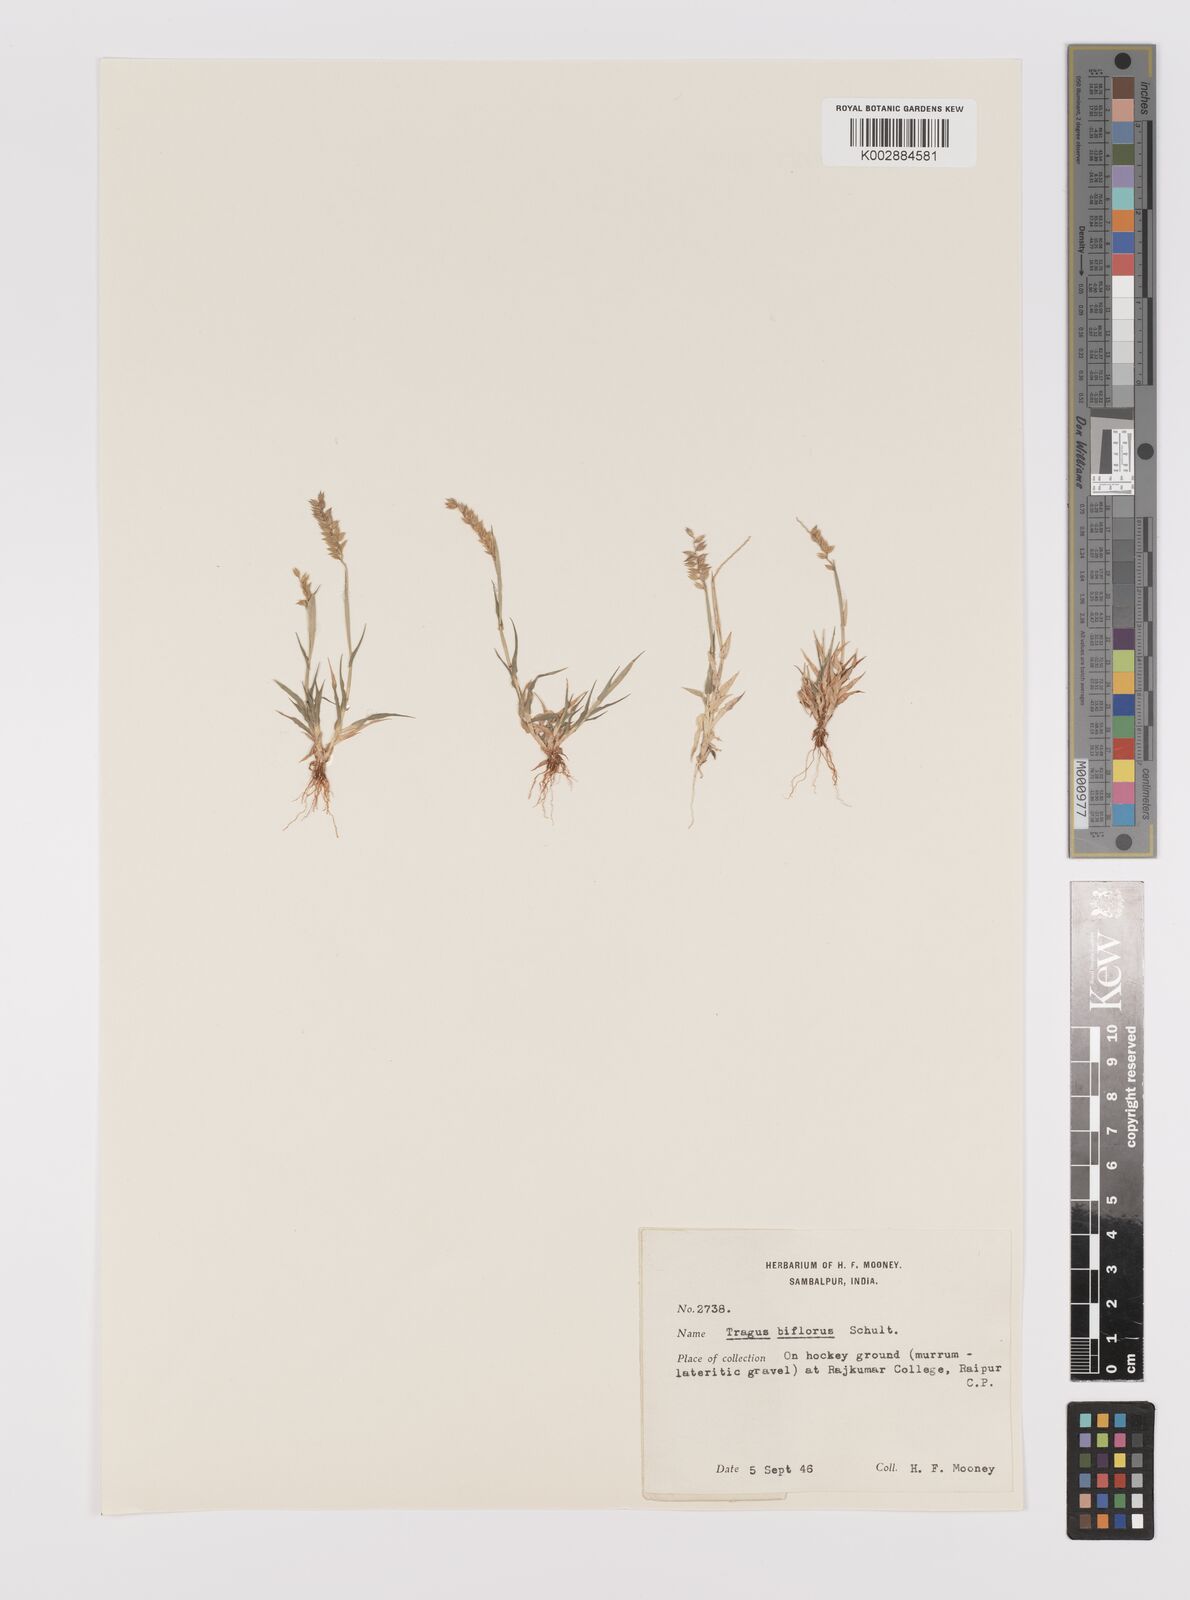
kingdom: Plantae
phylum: Tracheophyta
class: Liliopsida
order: Poales
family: Poaceae
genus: Tragus
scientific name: Tragus mongolorum
